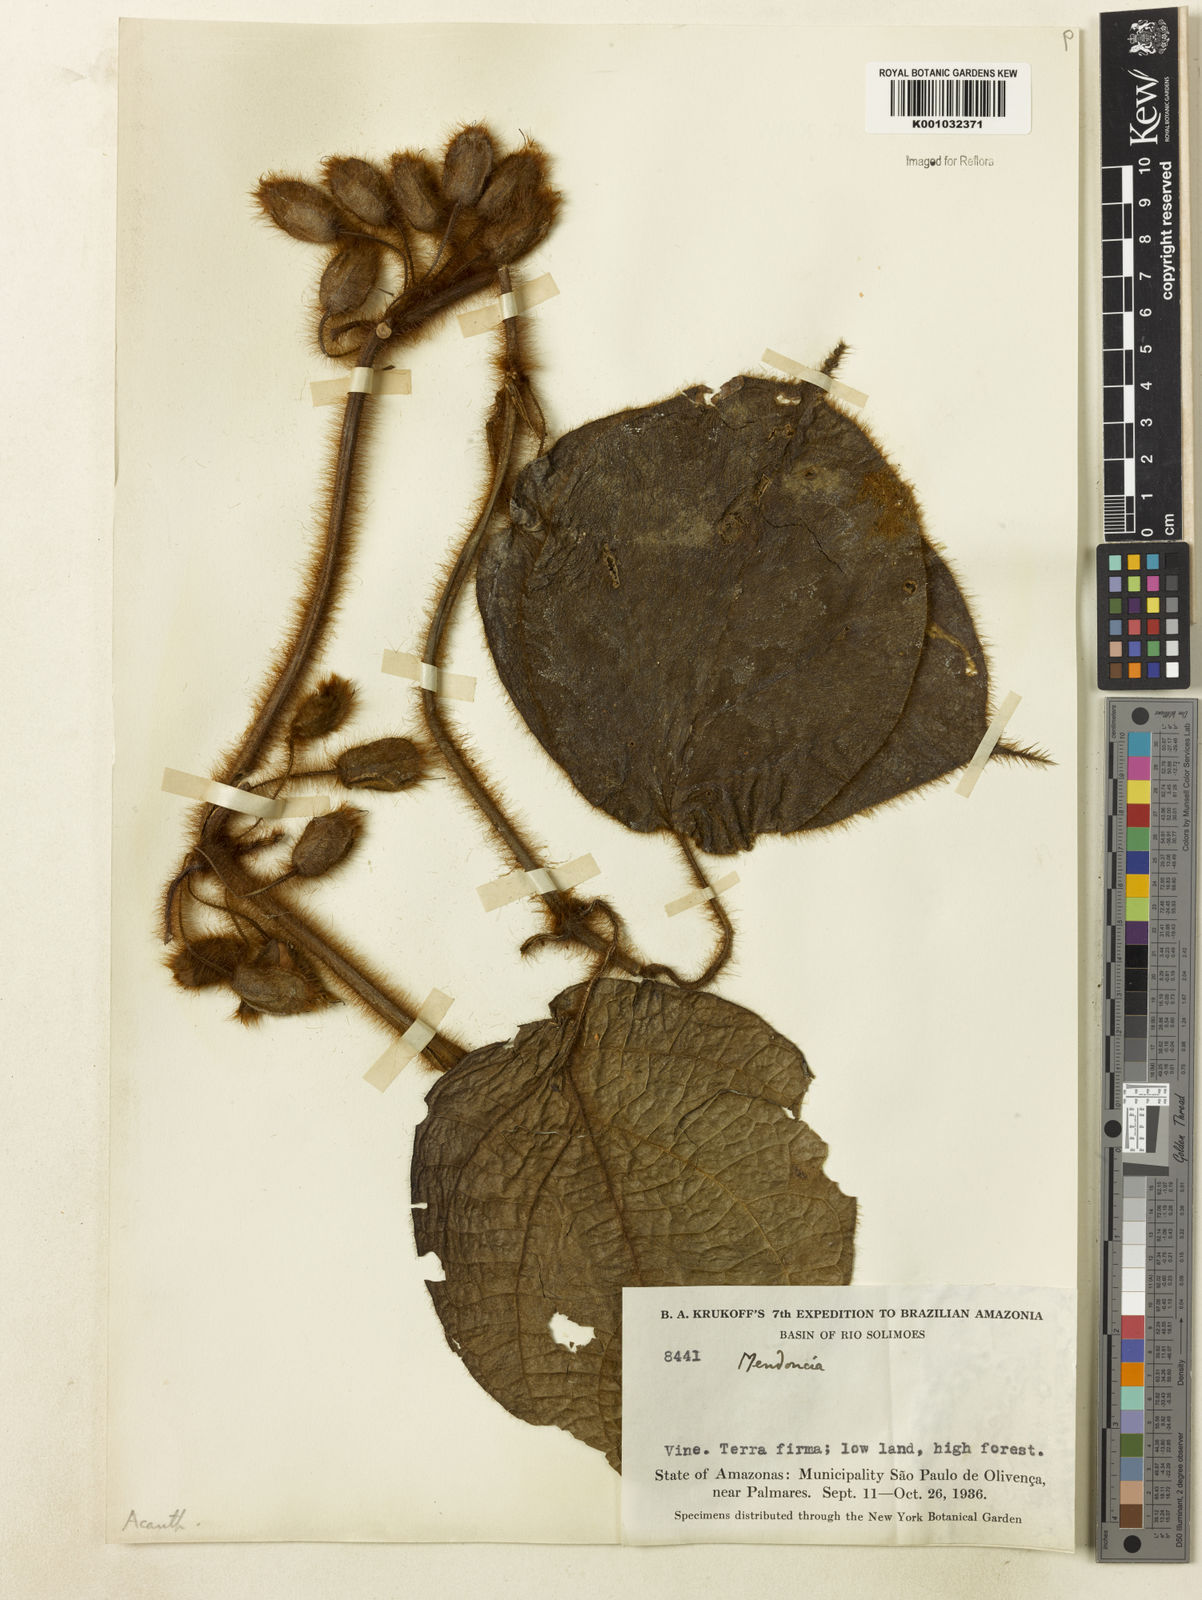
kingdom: Plantae
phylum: Tracheophyta
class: Magnoliopsida
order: Lamiales
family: Acanthaceae
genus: Mendoncia
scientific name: Mendoncia
